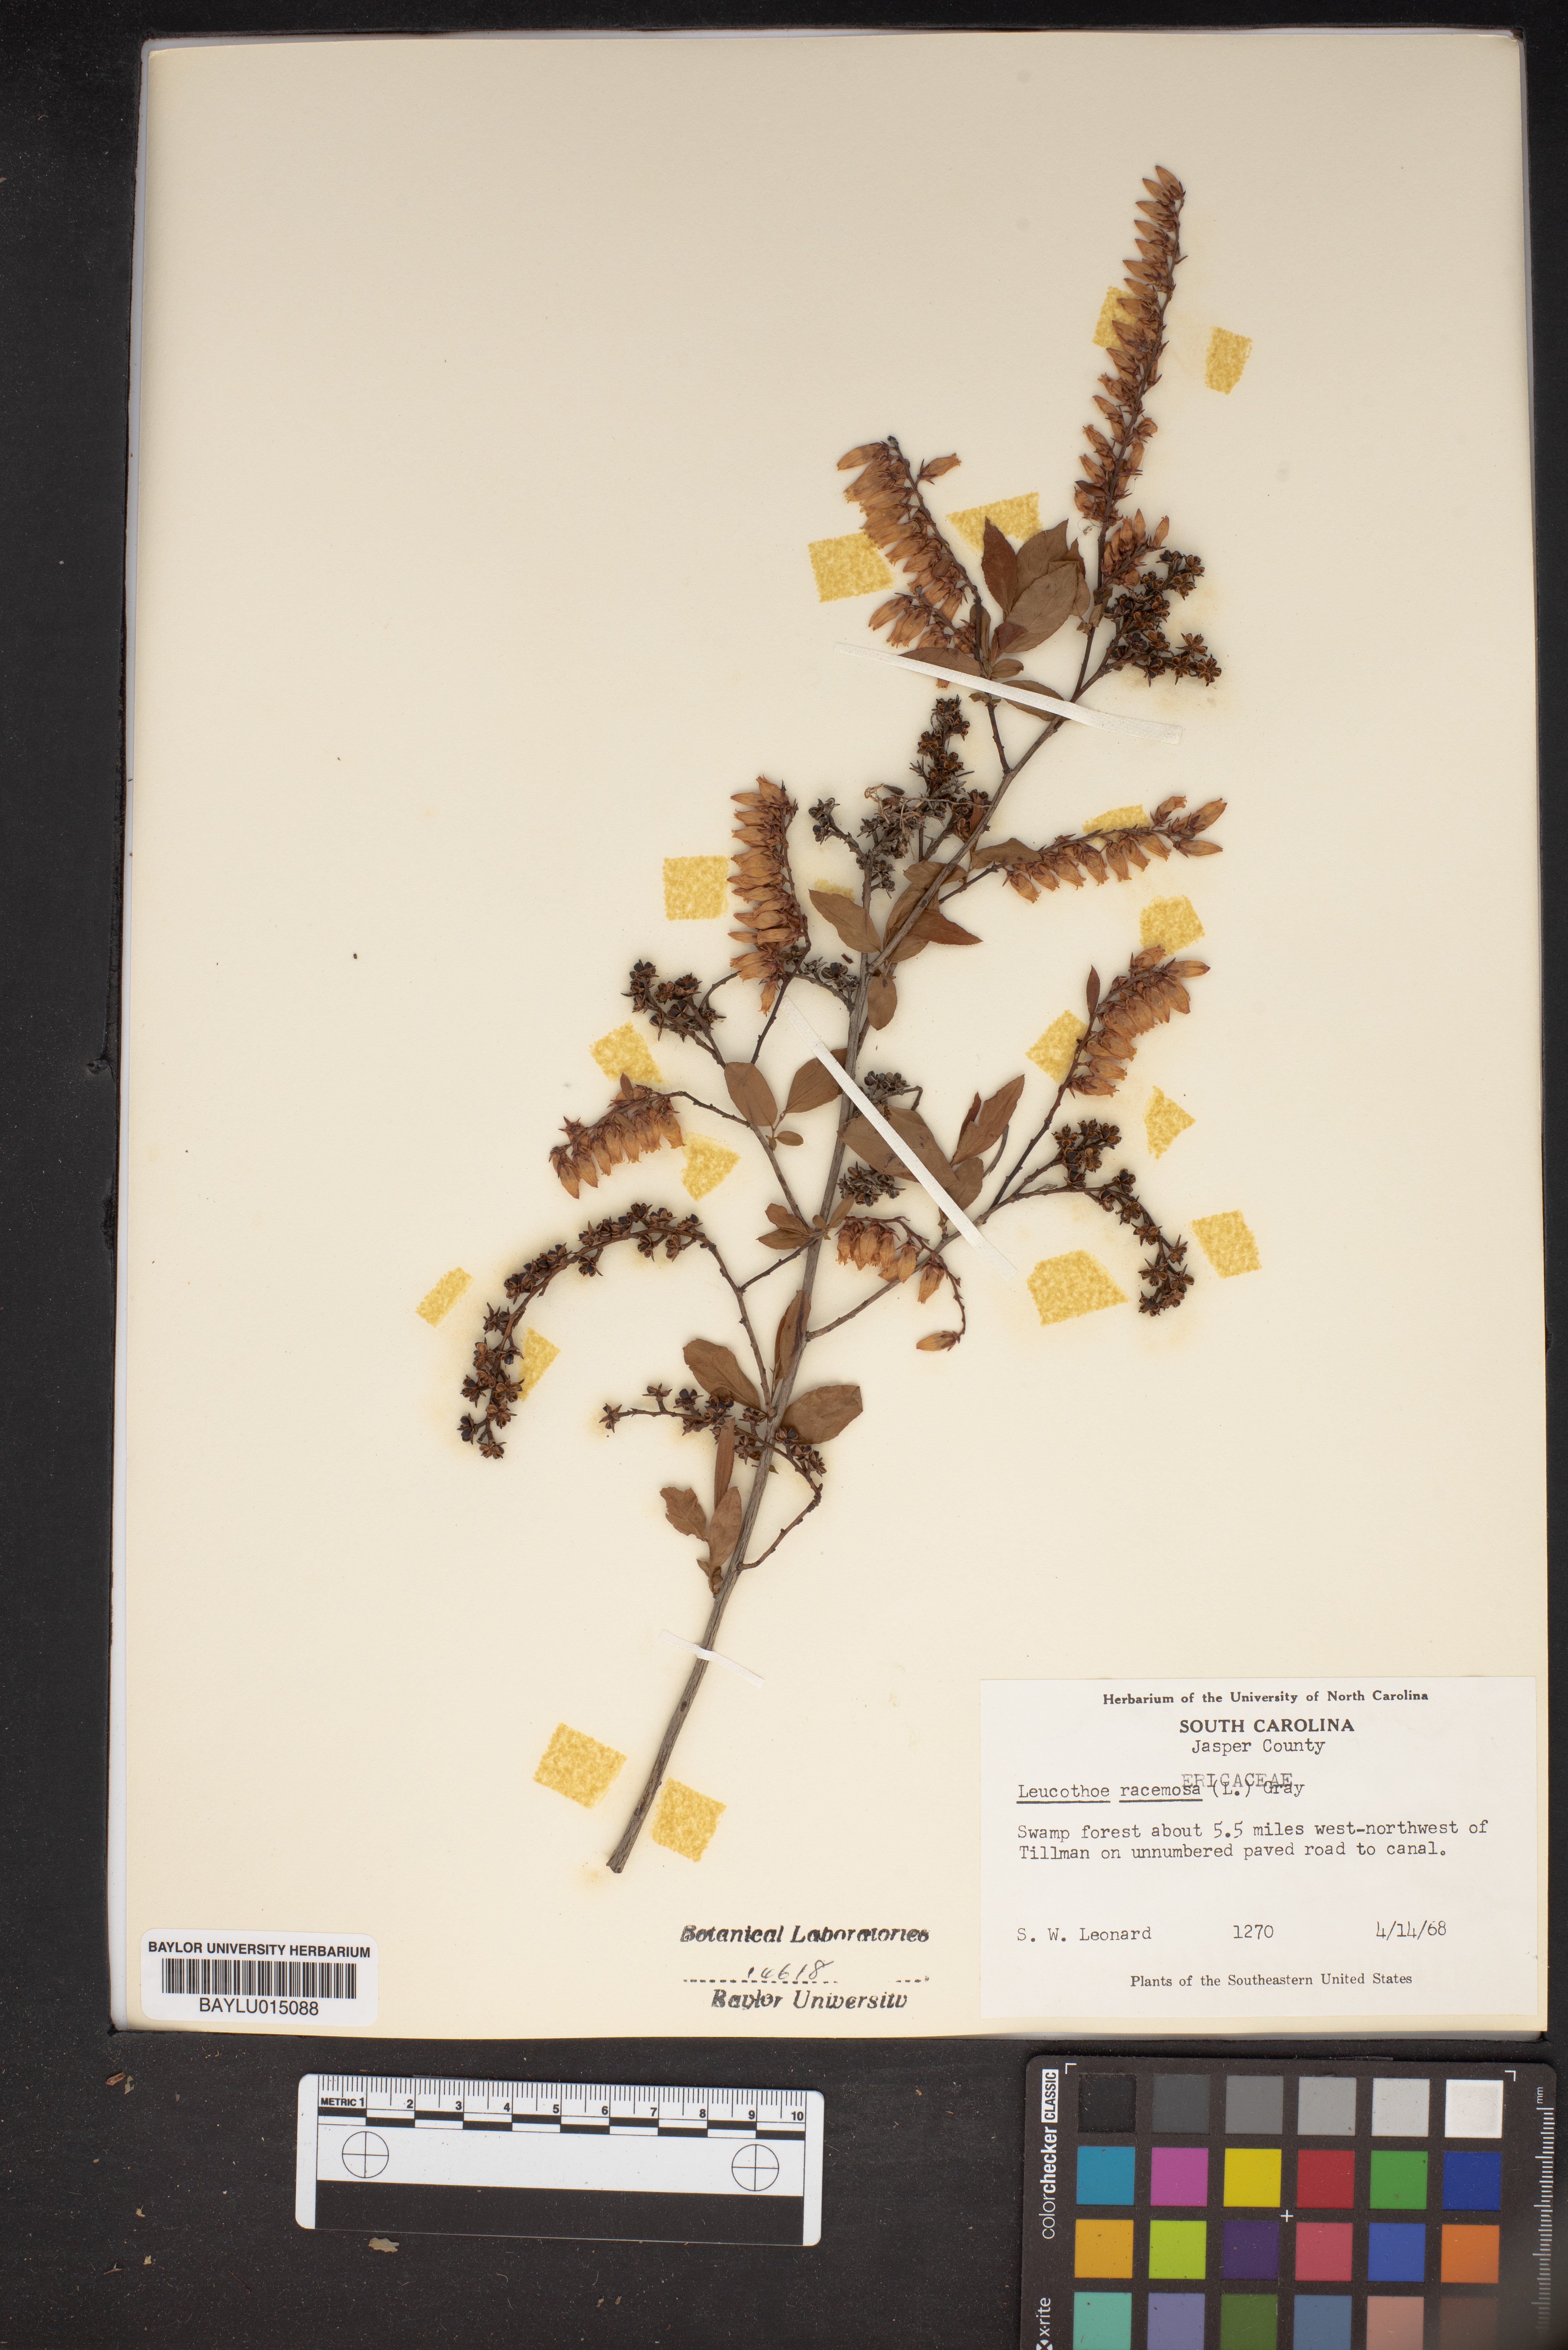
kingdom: Plantae
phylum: Tracheophyta
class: Magnoliopsida
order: Ericales
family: Ericaceae
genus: Eubotrys
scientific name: Eubotrys racemosa
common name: Fetterbush
